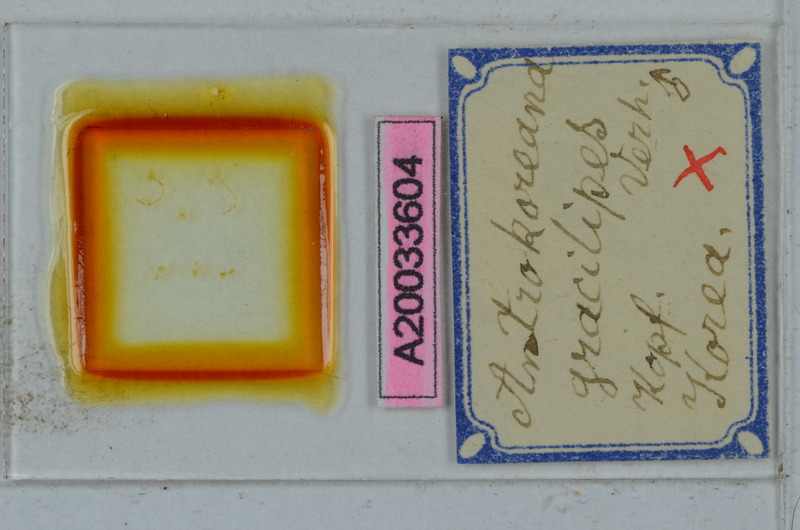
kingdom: Animalia
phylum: Arthropoda
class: Diplopoda
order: Julida
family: Nemasomatidae
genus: Antrokoreana
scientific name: Antrokoreana gracilipes
